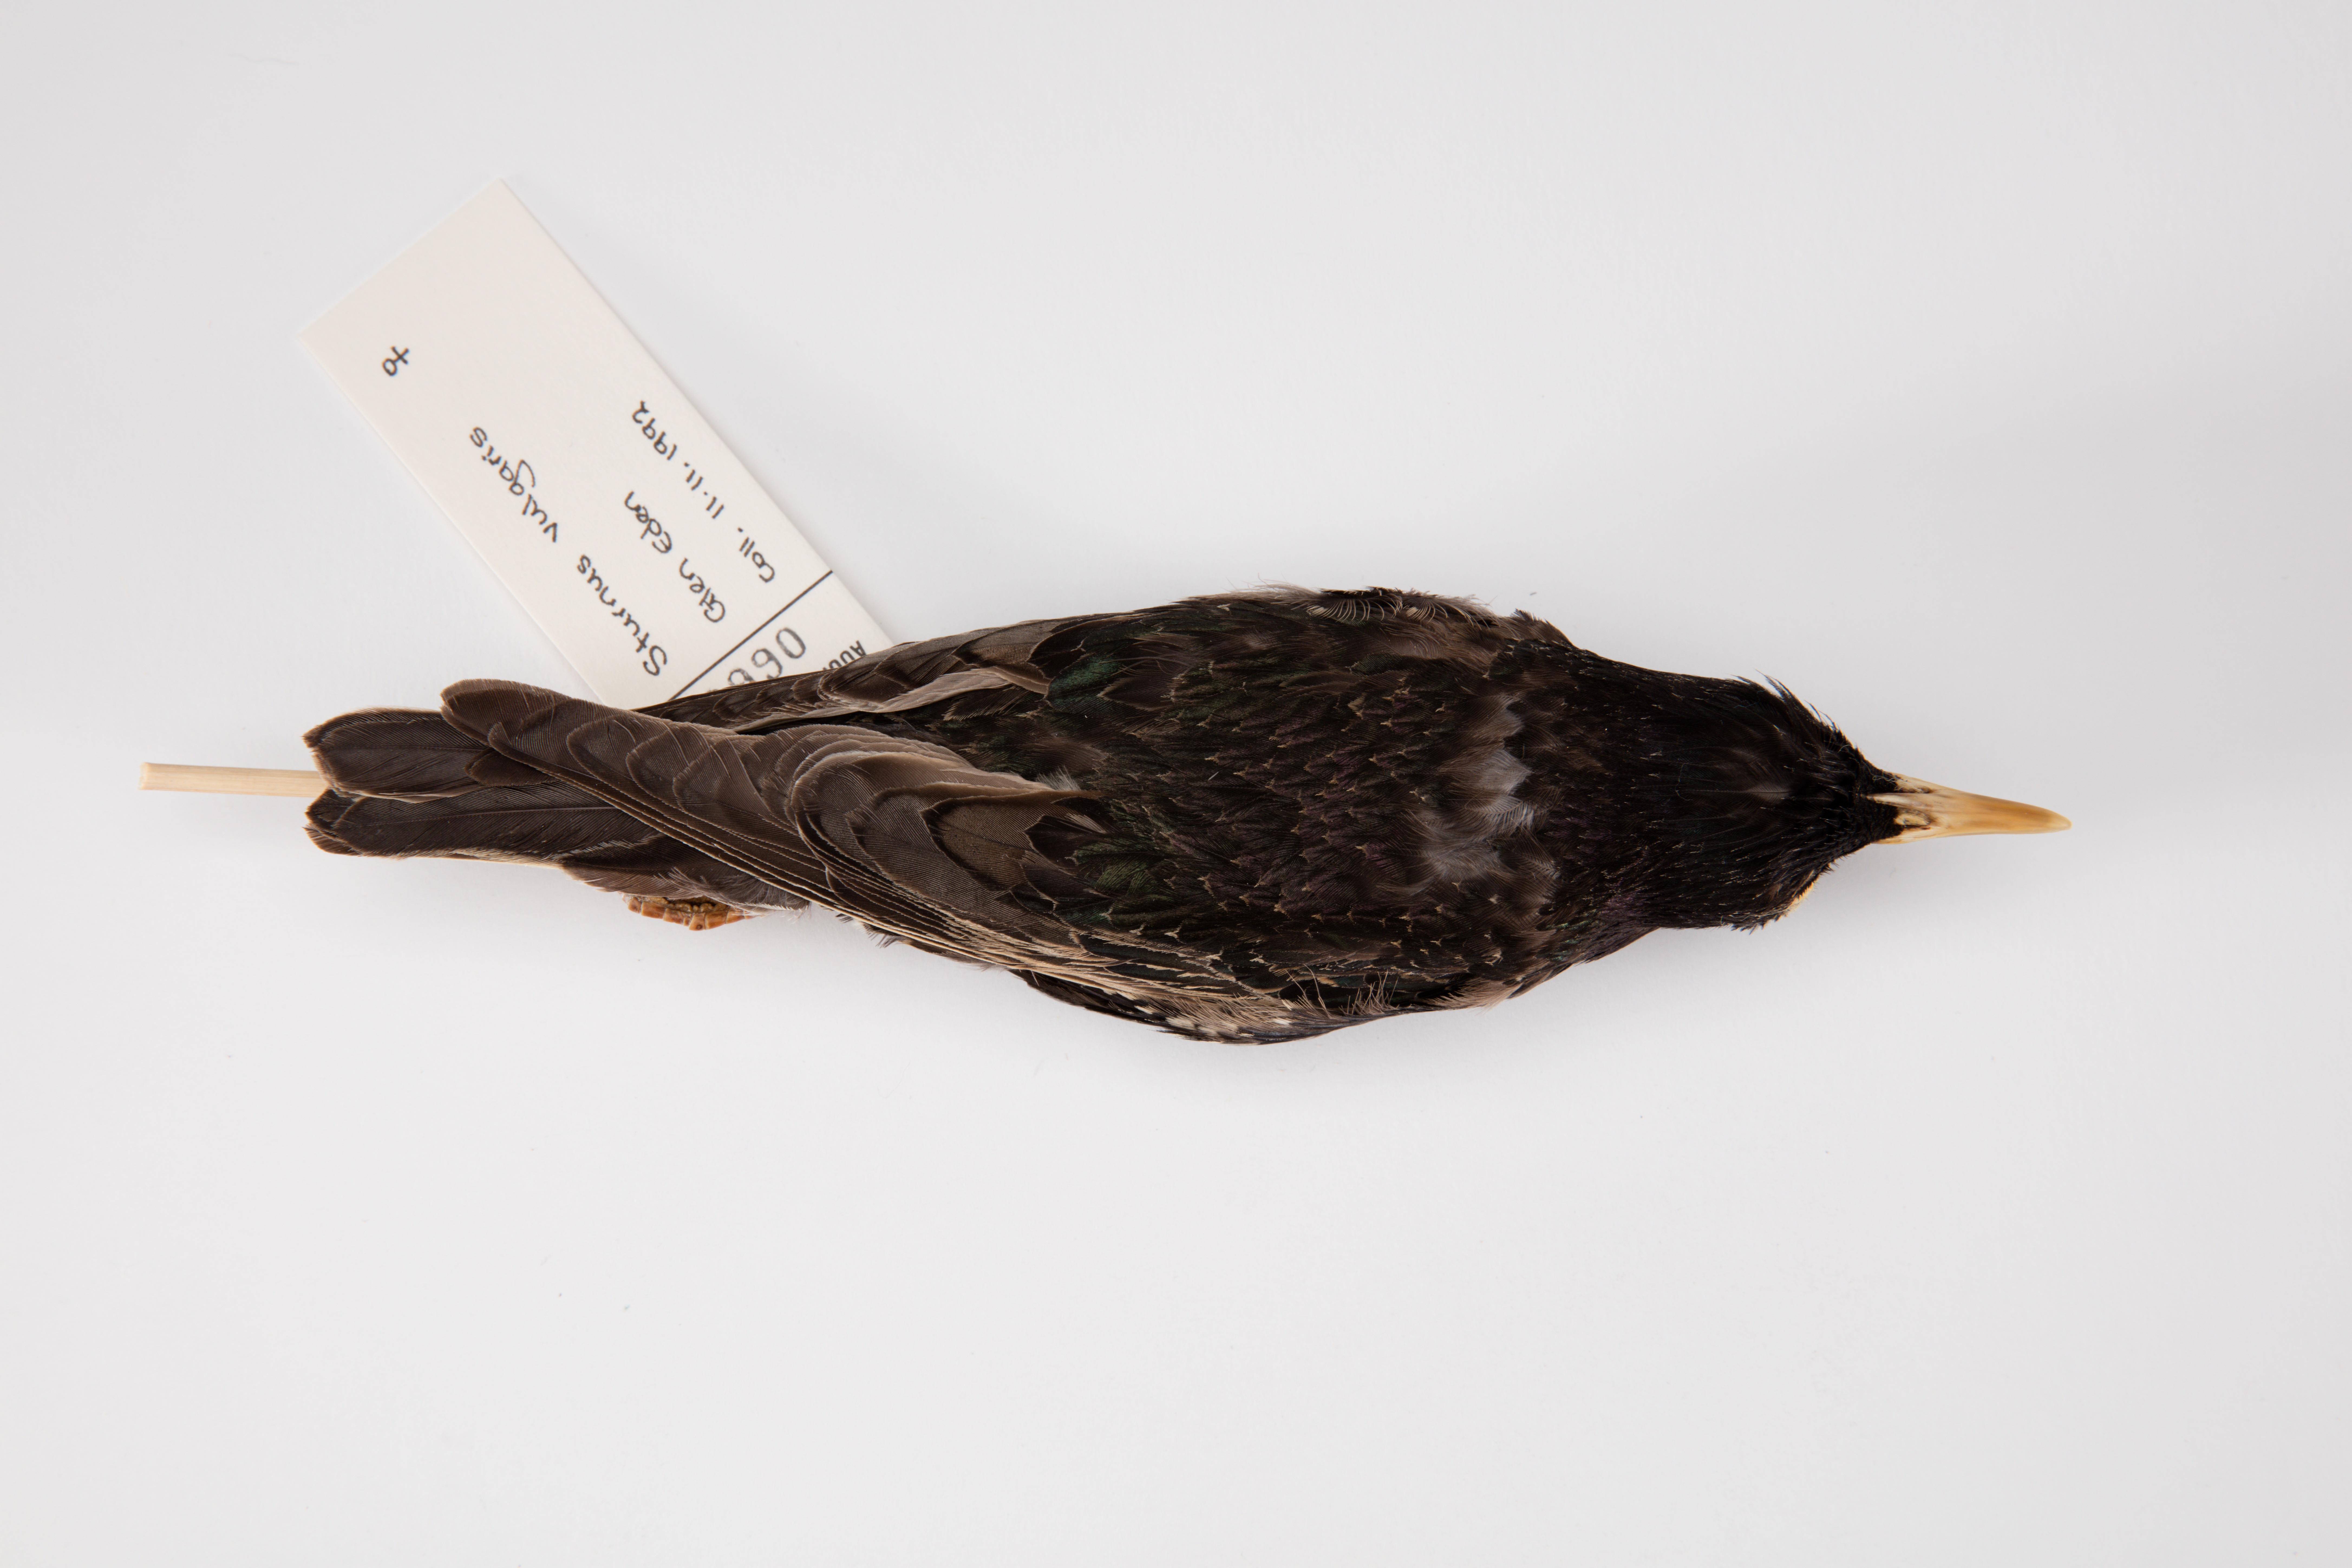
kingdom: Animalia
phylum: Chordata
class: Aves
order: Passeriformes
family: Sturnidae
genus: Sturnus
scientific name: Sturnus vulgaris
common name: Common starling
